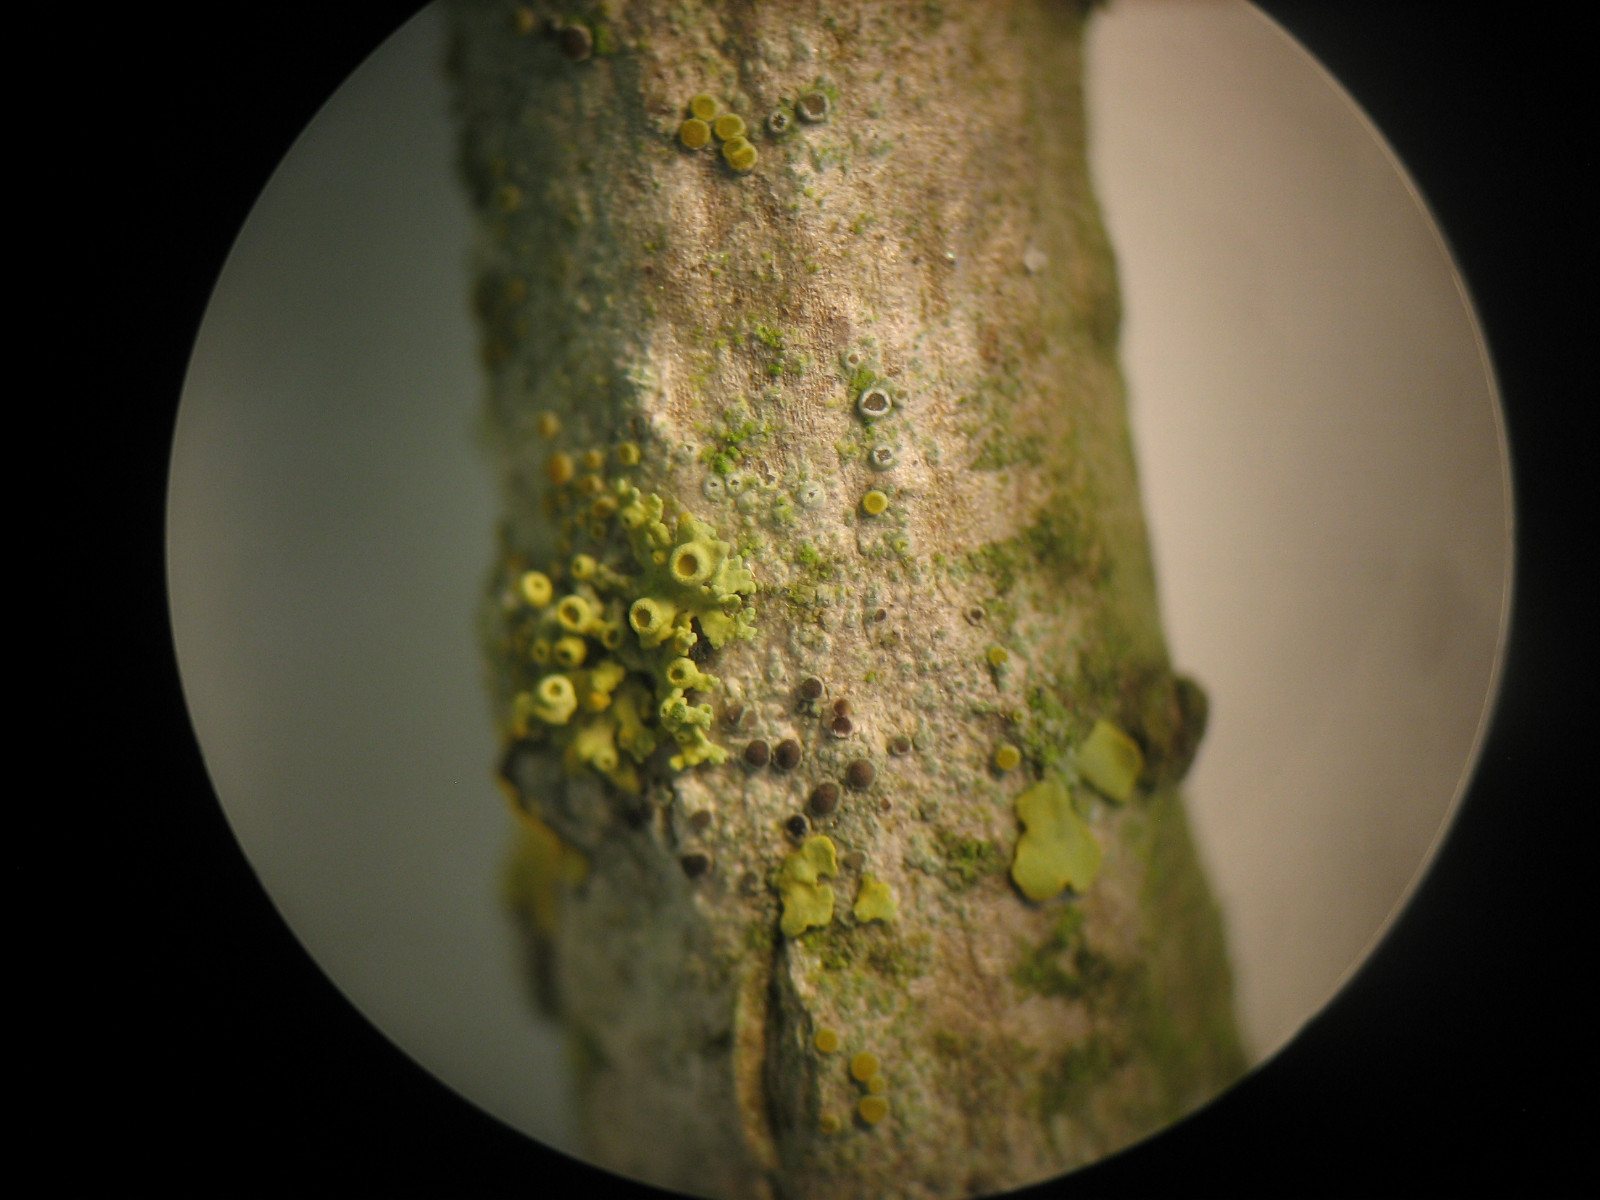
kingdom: Fungi
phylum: Ascomycota
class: Lecanoromycetes
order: Lecanorales
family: Ramalinaceae
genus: Lecania
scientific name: Lecania cyrtella
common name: hylde-lecania
